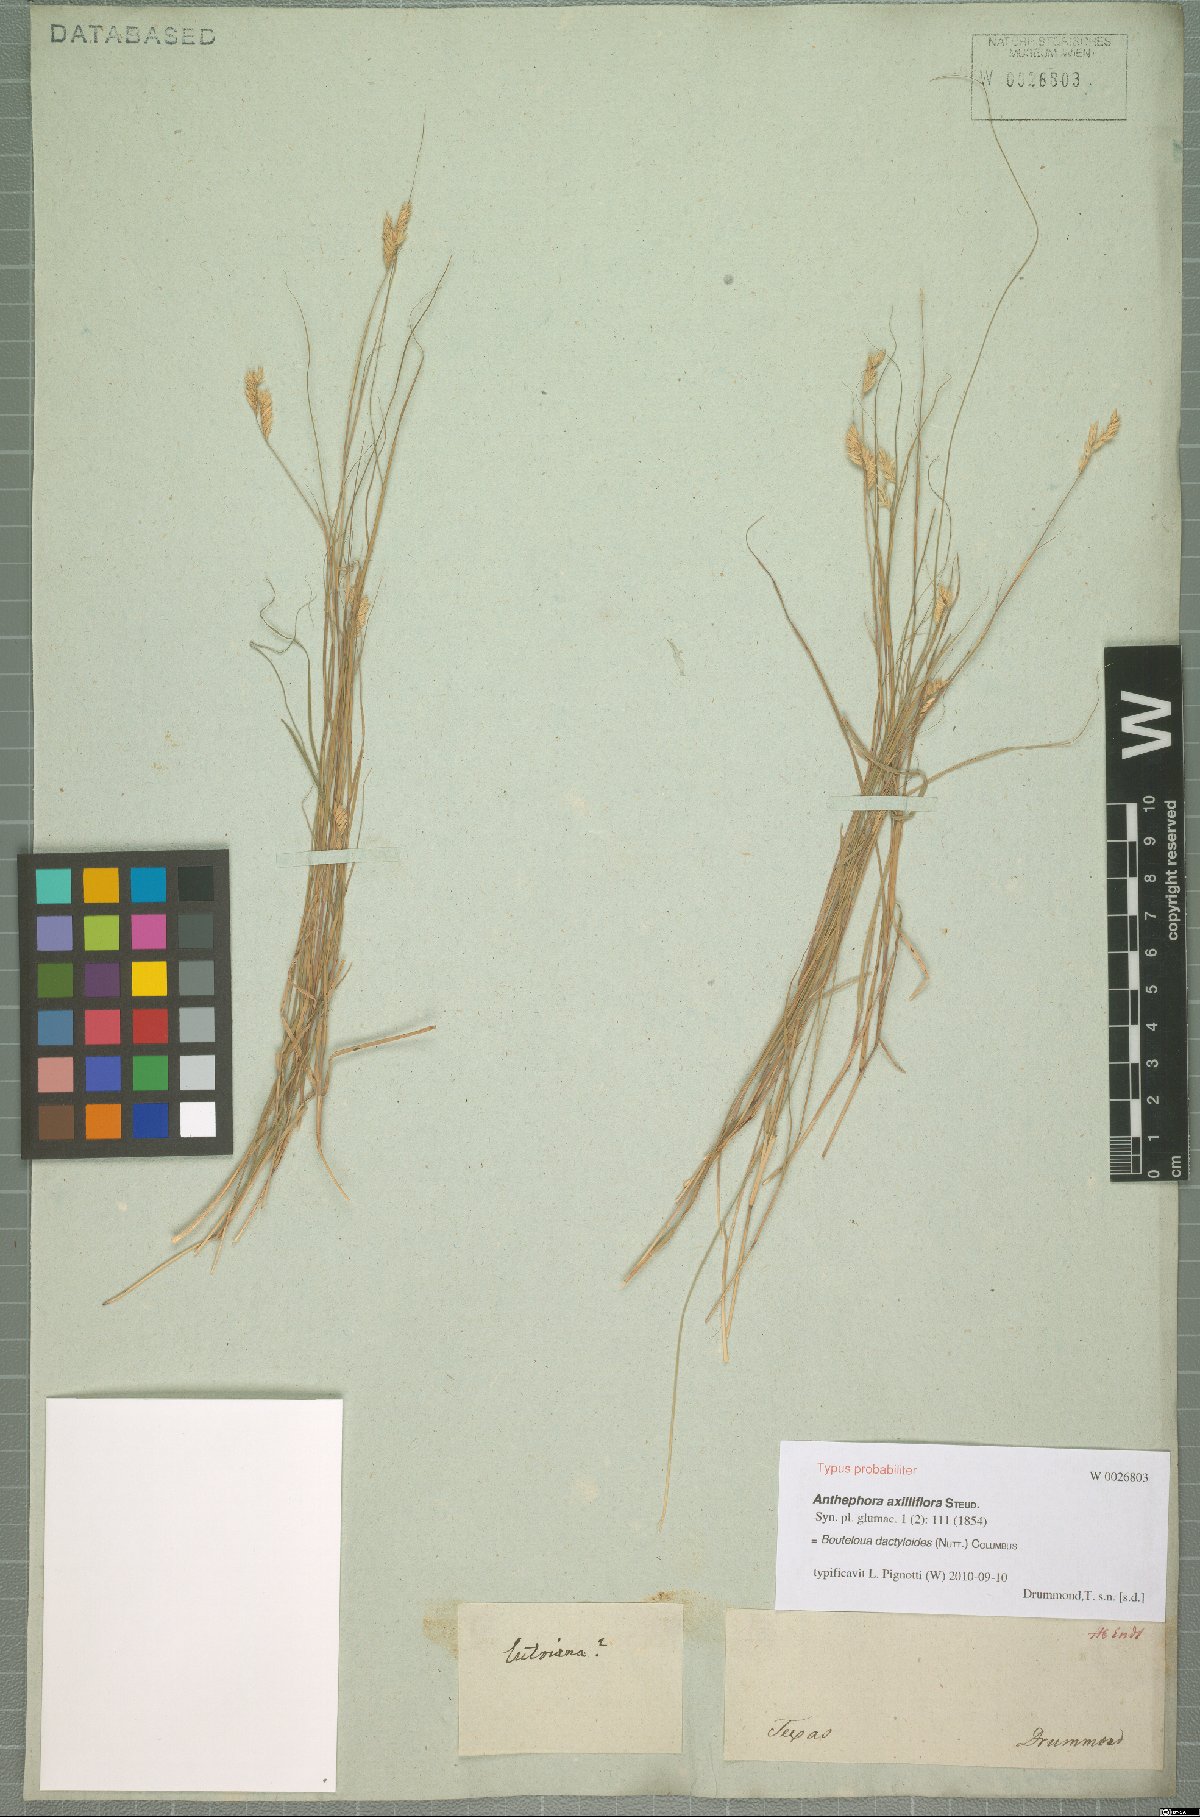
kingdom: Plantae
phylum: Tracheophyta
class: Liliopsida
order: Poales
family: Poaceae
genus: Bouteloua
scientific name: Bouteloua dactyloides
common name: Buffalo grass
